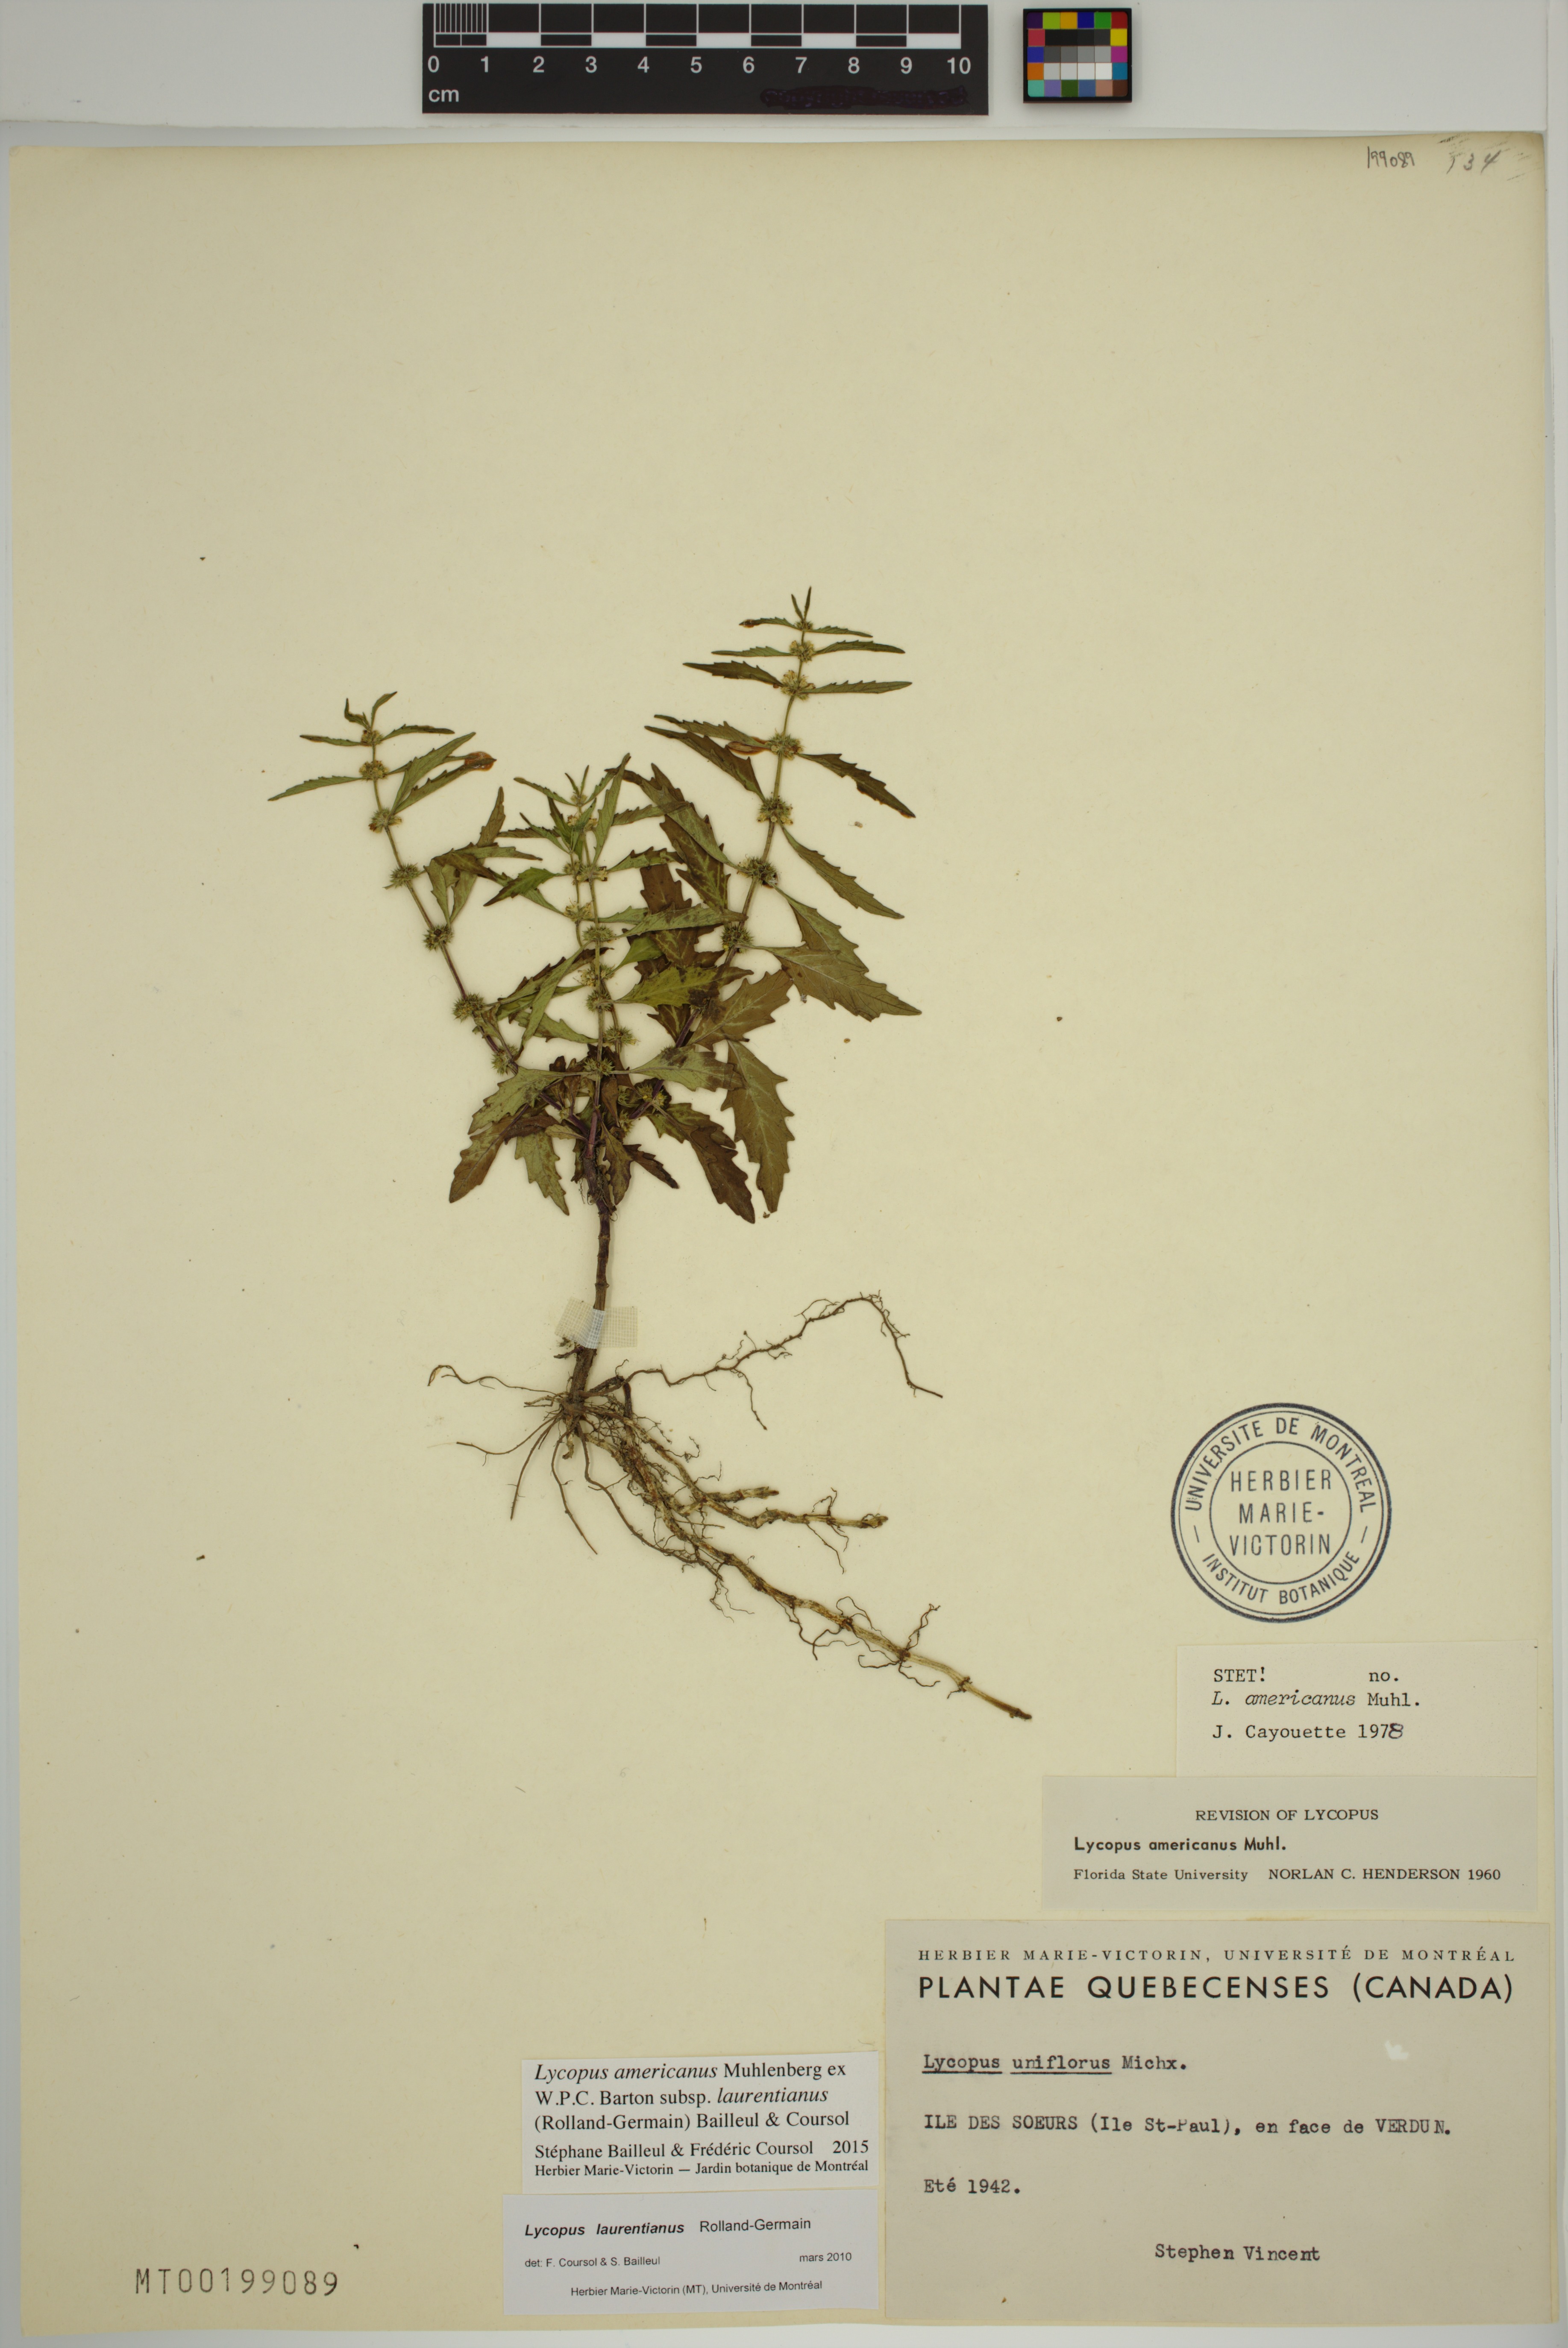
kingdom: Plantae
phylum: Tracheophyta
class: Magnoliopsida
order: Lamiales
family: Lamiaceae
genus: Lycopus
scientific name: Lycopus americanus
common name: American bugleweed
